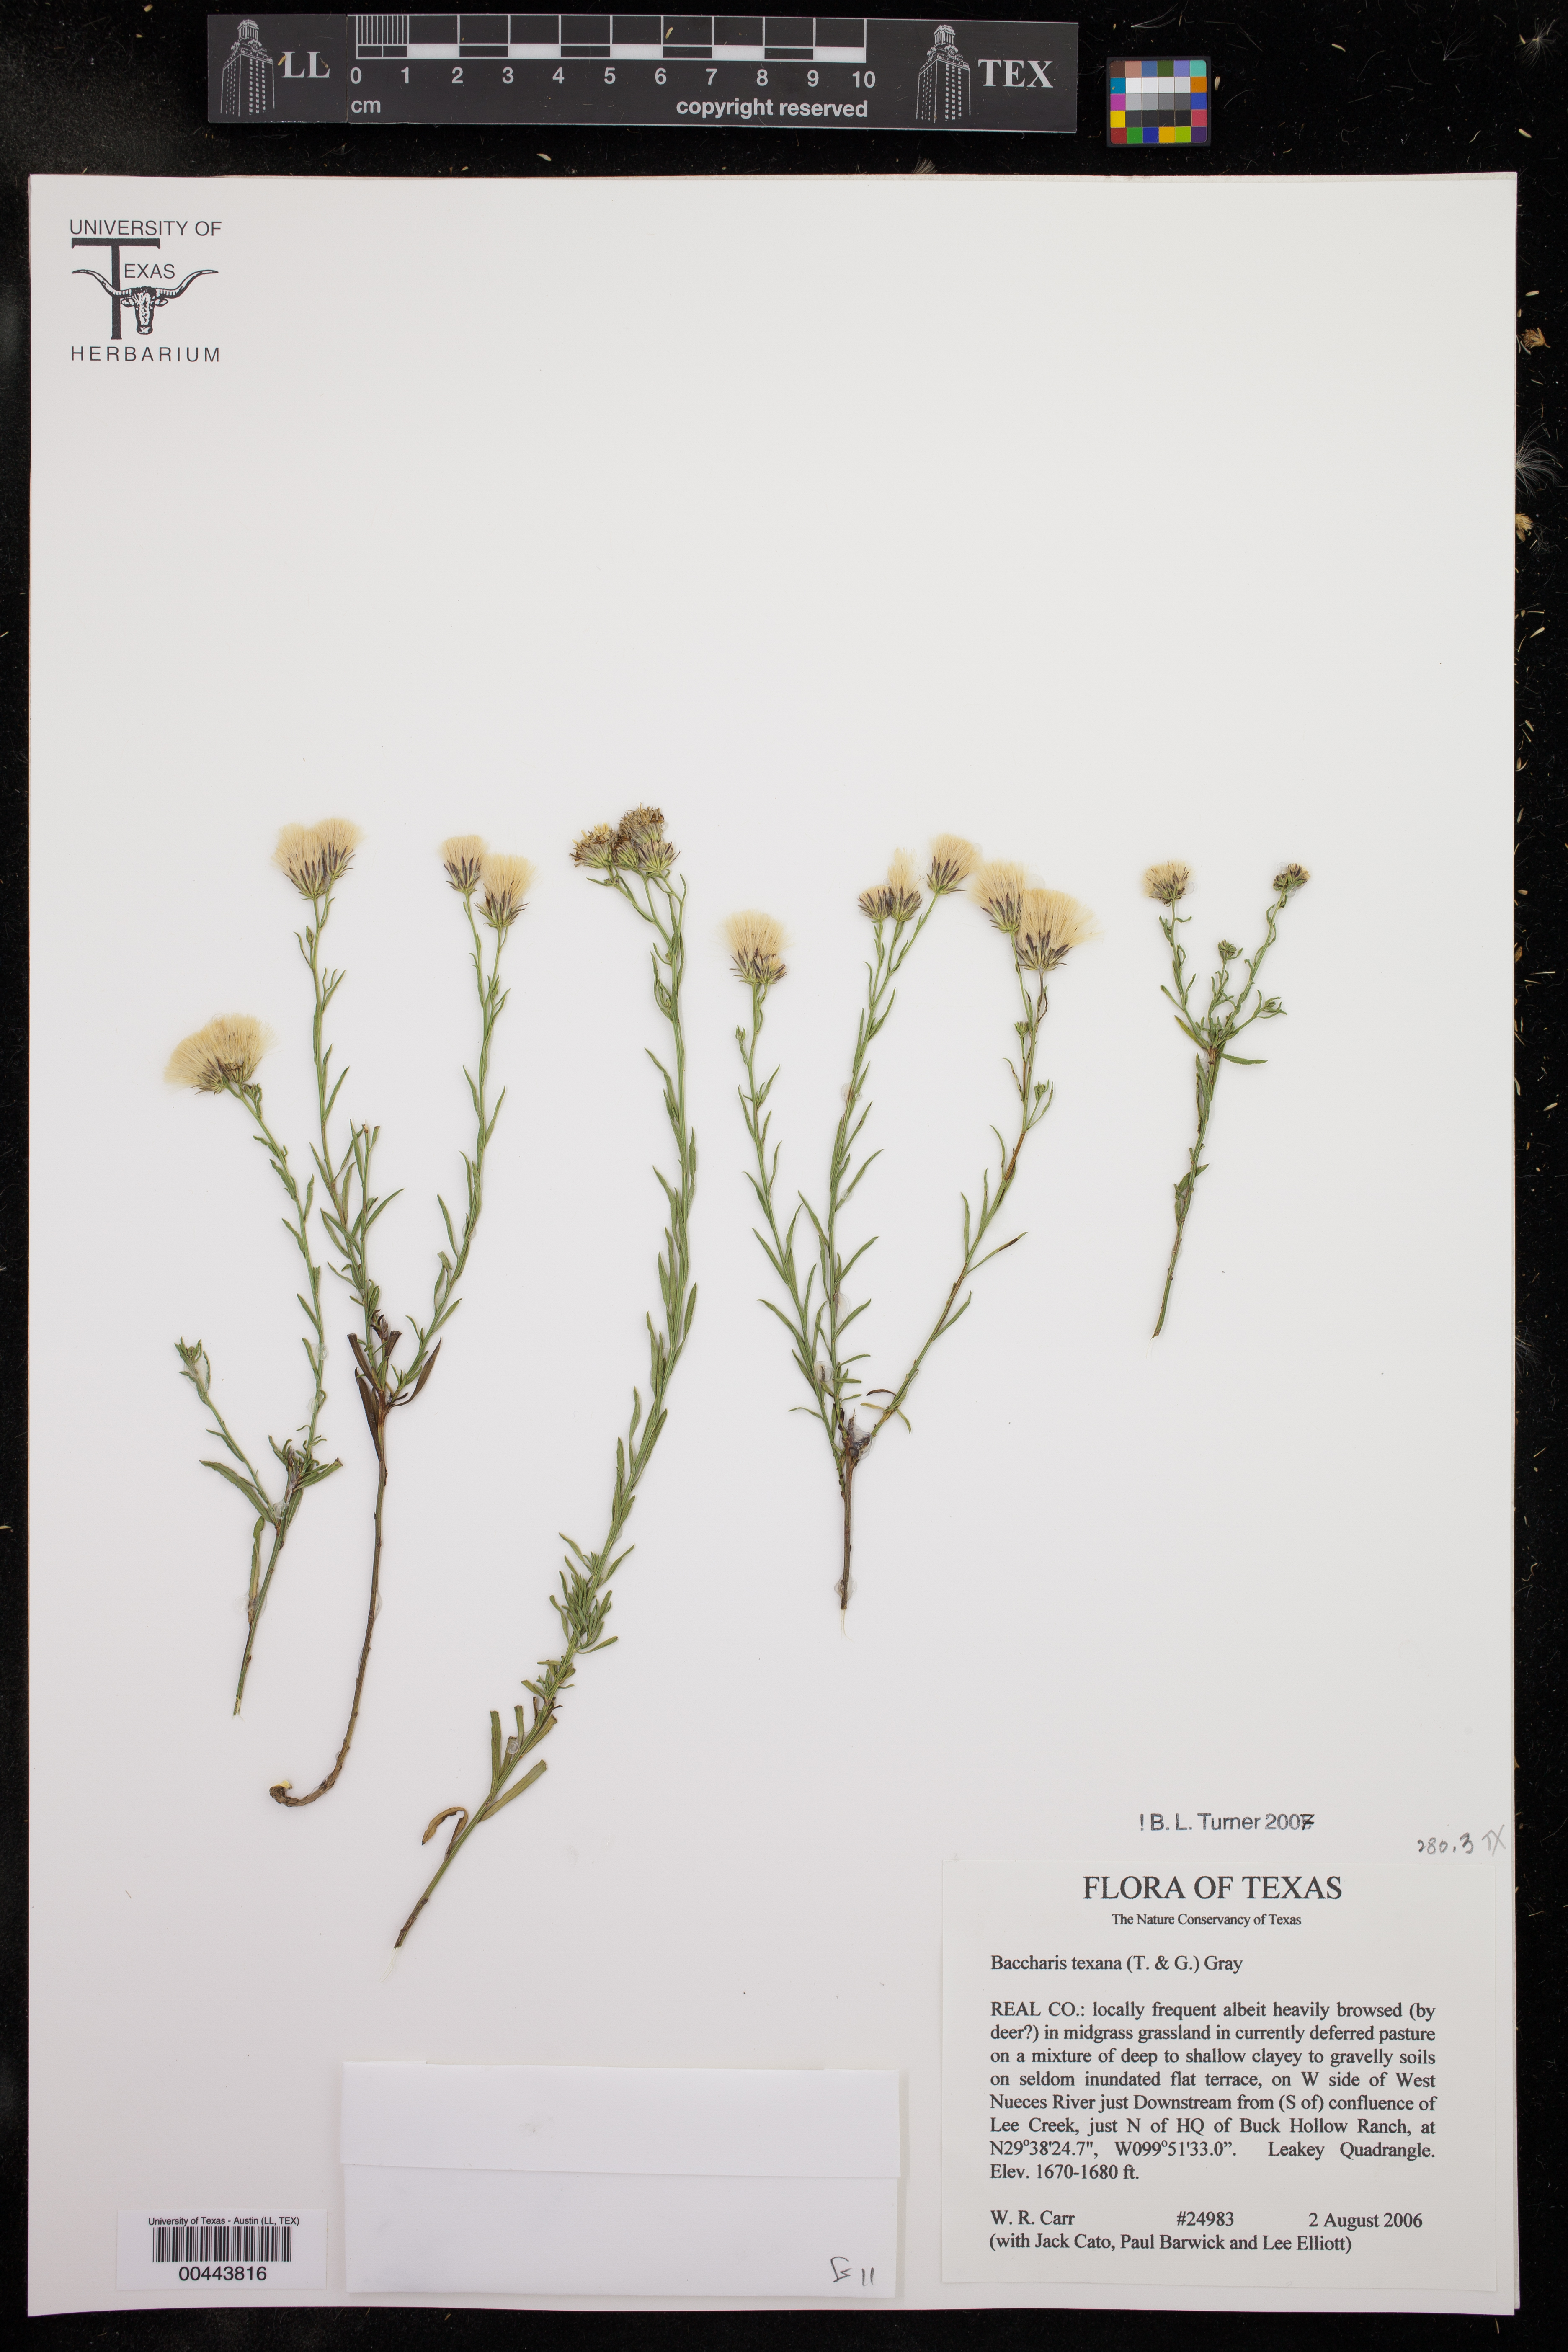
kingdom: Plantae
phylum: Tracheophyta
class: Magnoliopsida
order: Asterales
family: Asteraceae
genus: Baccharis
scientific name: Baccharis texana
